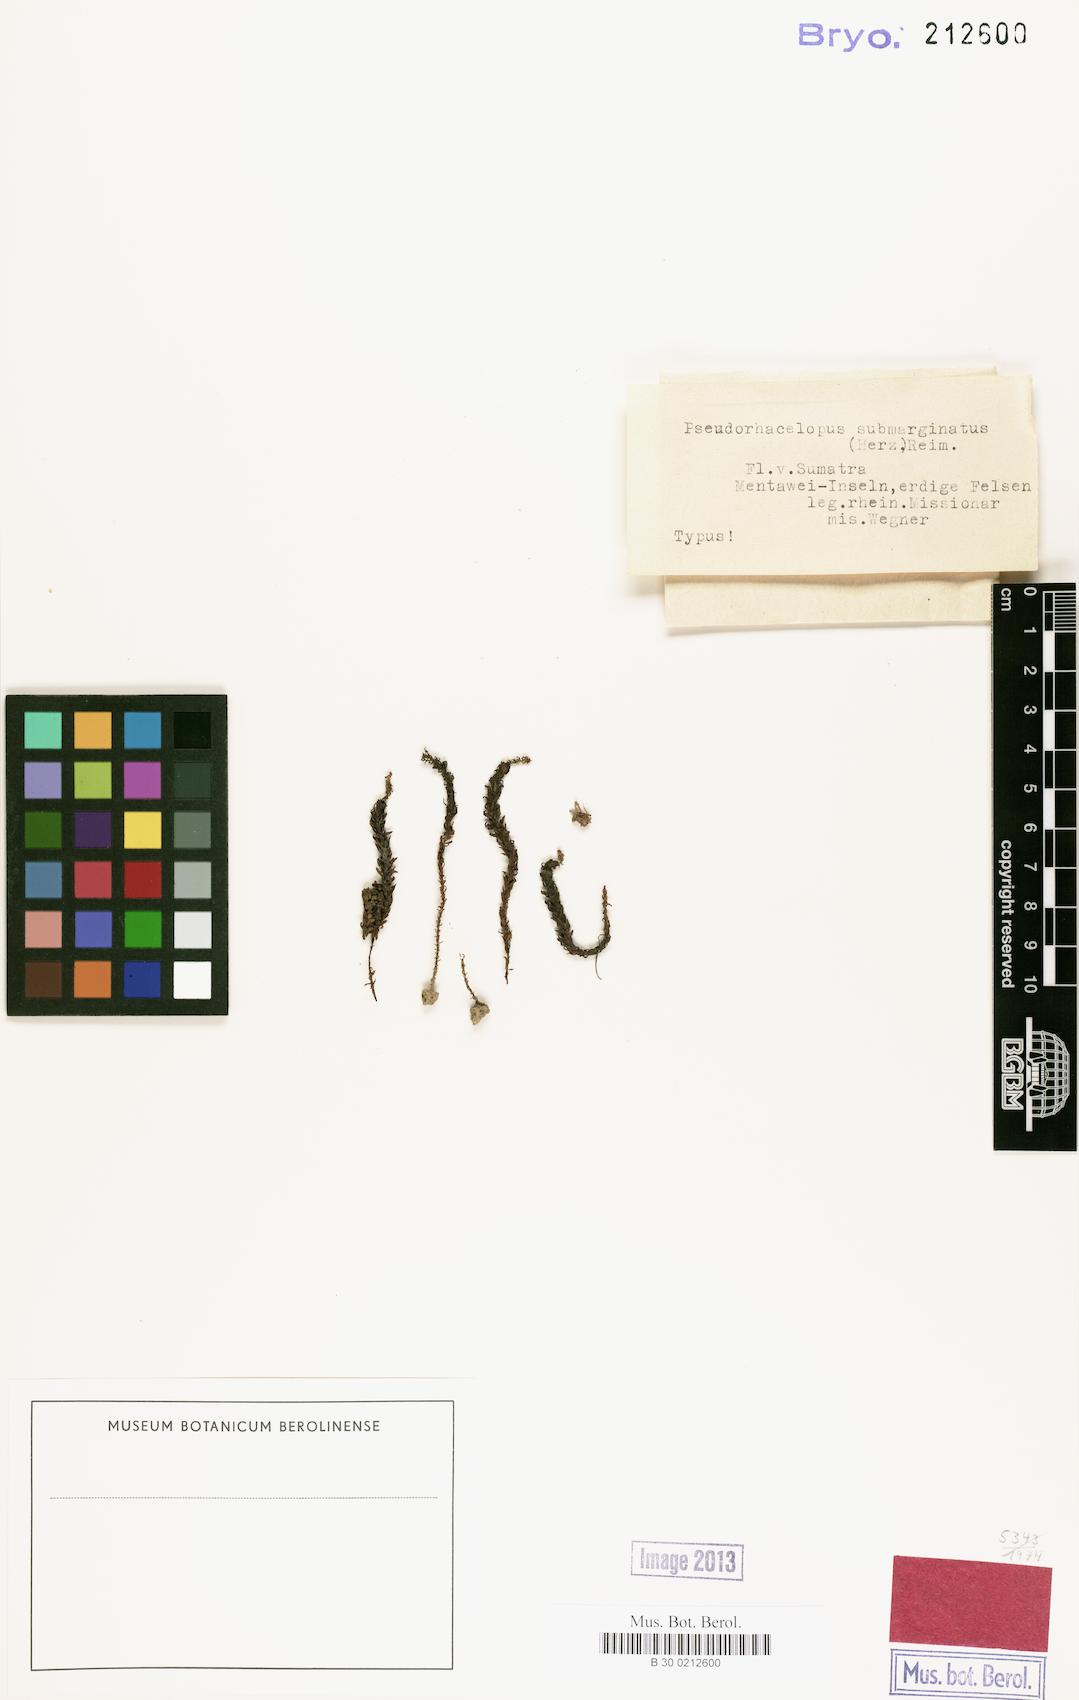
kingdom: Plantae
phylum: Bryophyta
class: Polytrichopsida
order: Polytrichales
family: Polytrichaceae
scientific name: Polytrichaceae
